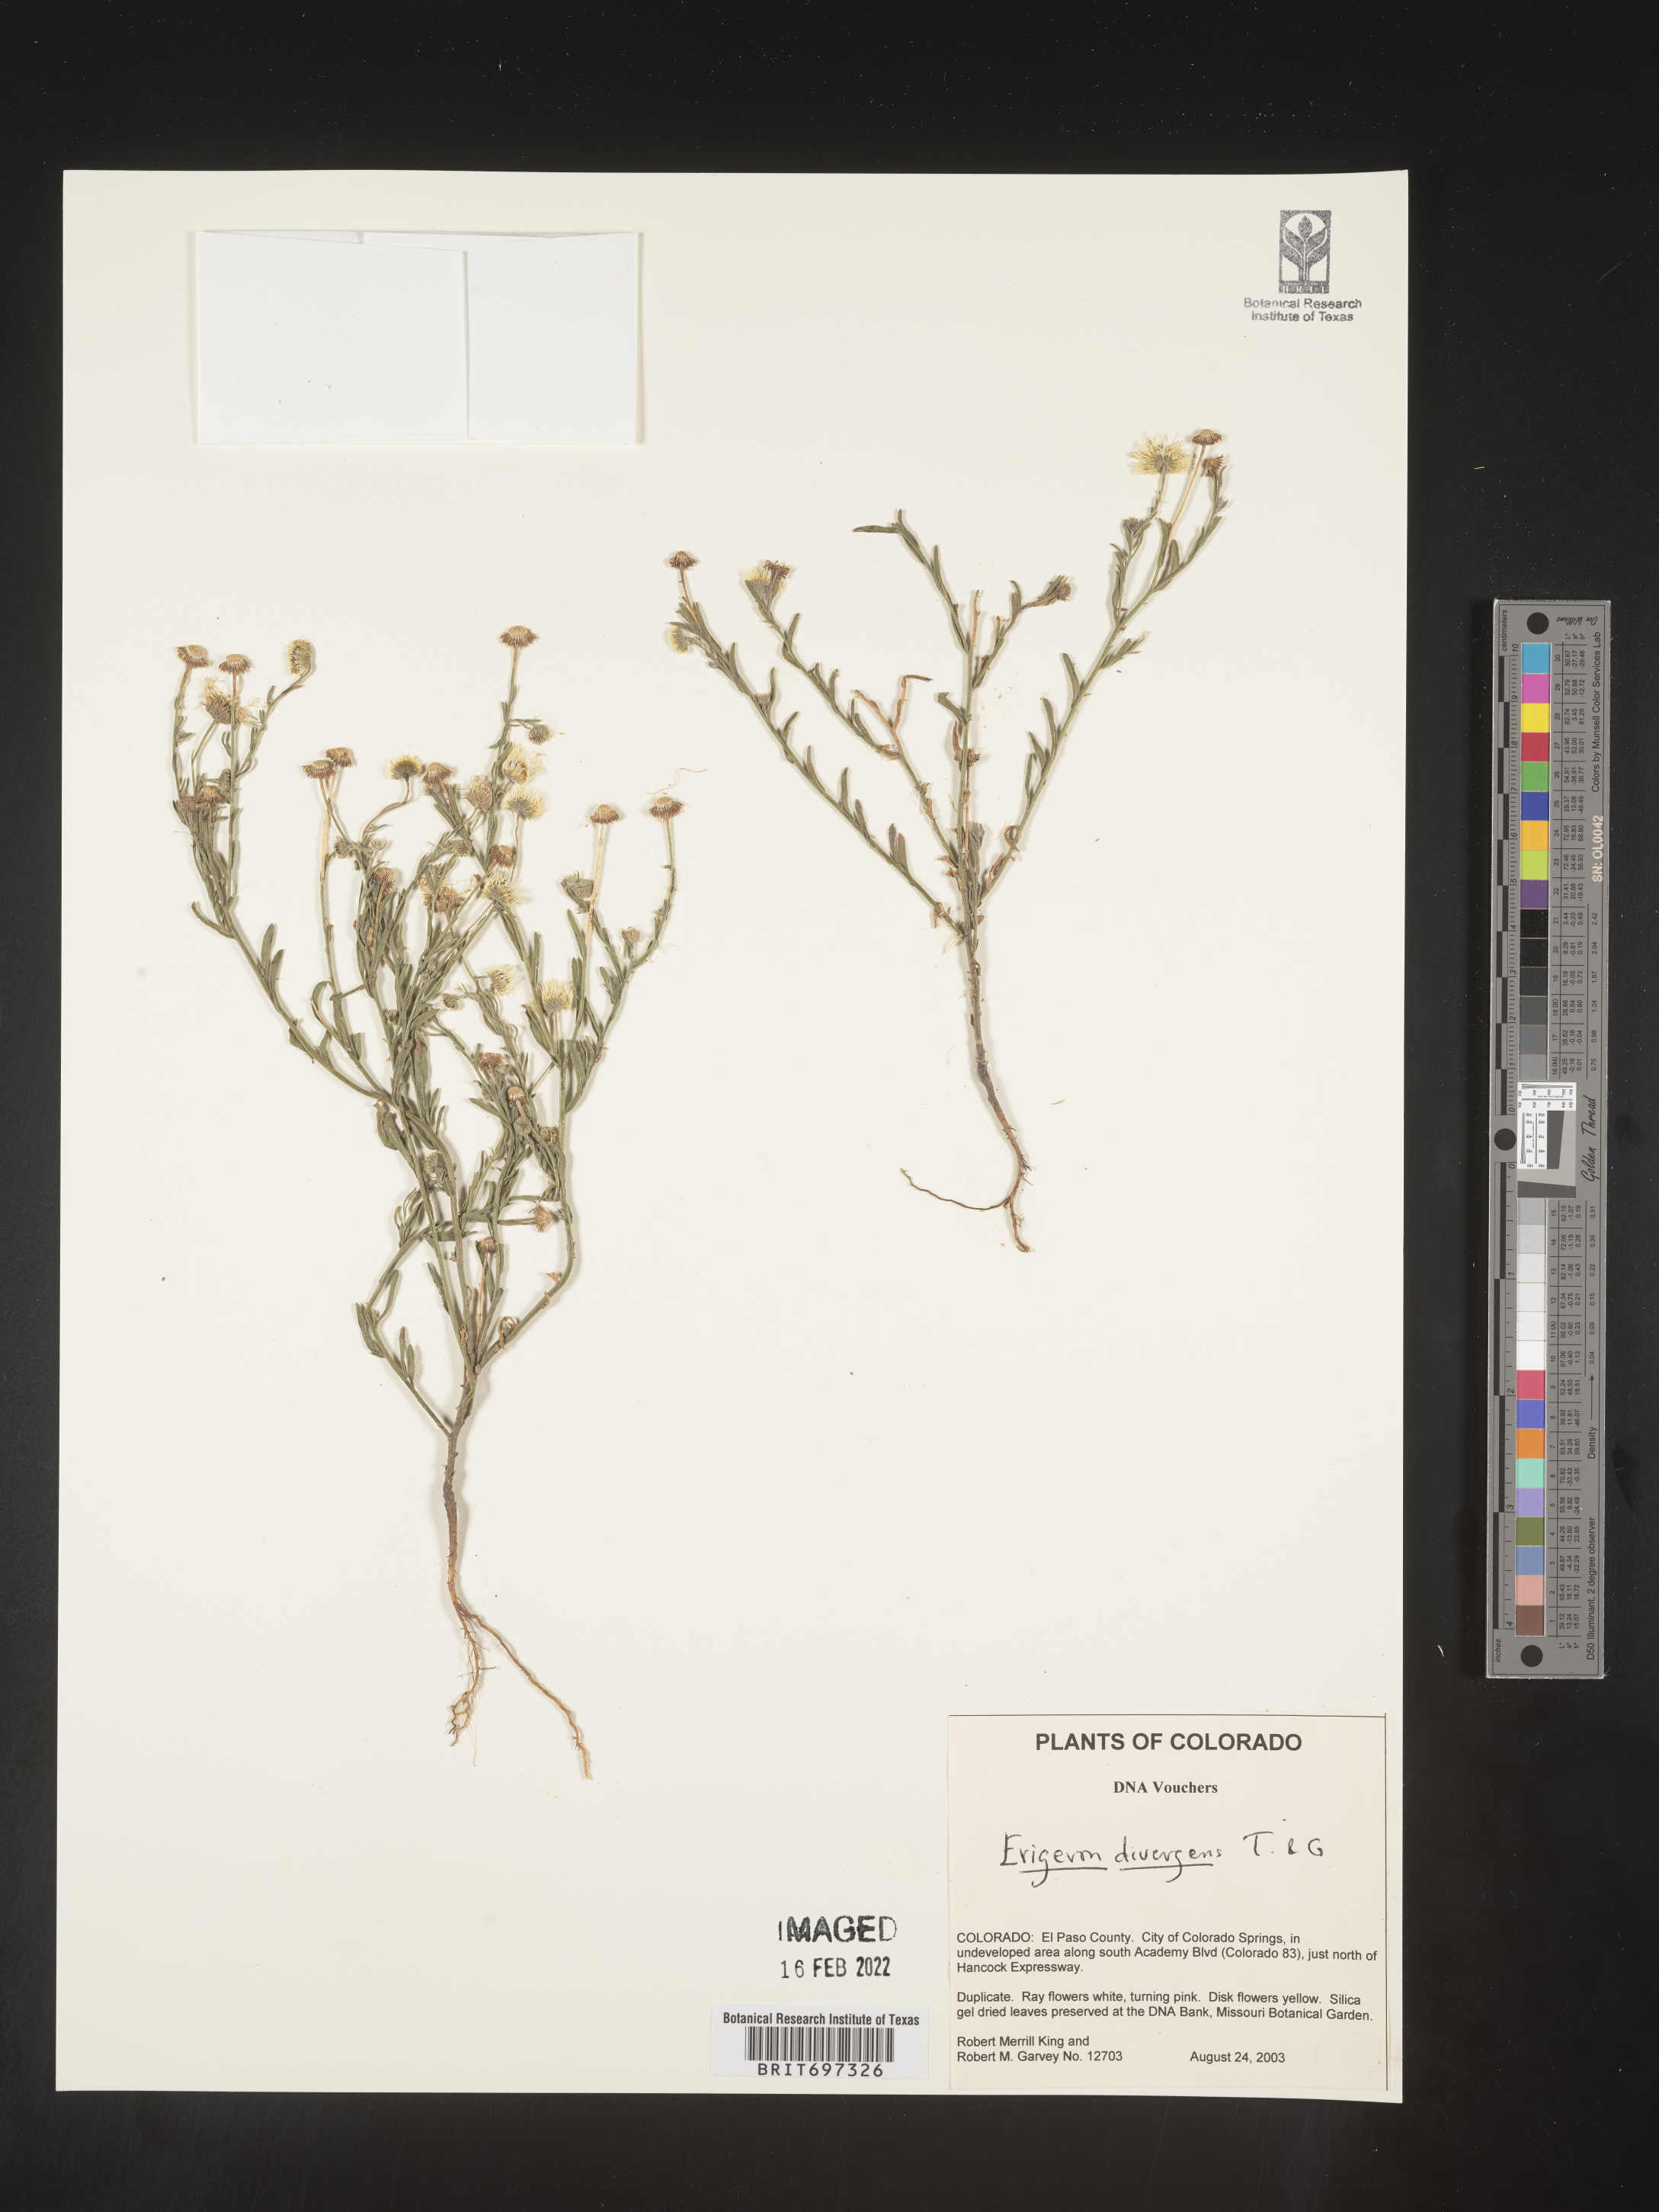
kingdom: Plantae
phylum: Tracheophyta
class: Magnoliopsida
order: Asterales
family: Asteraceae
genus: Erigeron
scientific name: Erigeron divergens
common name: Diffuse fleabane
